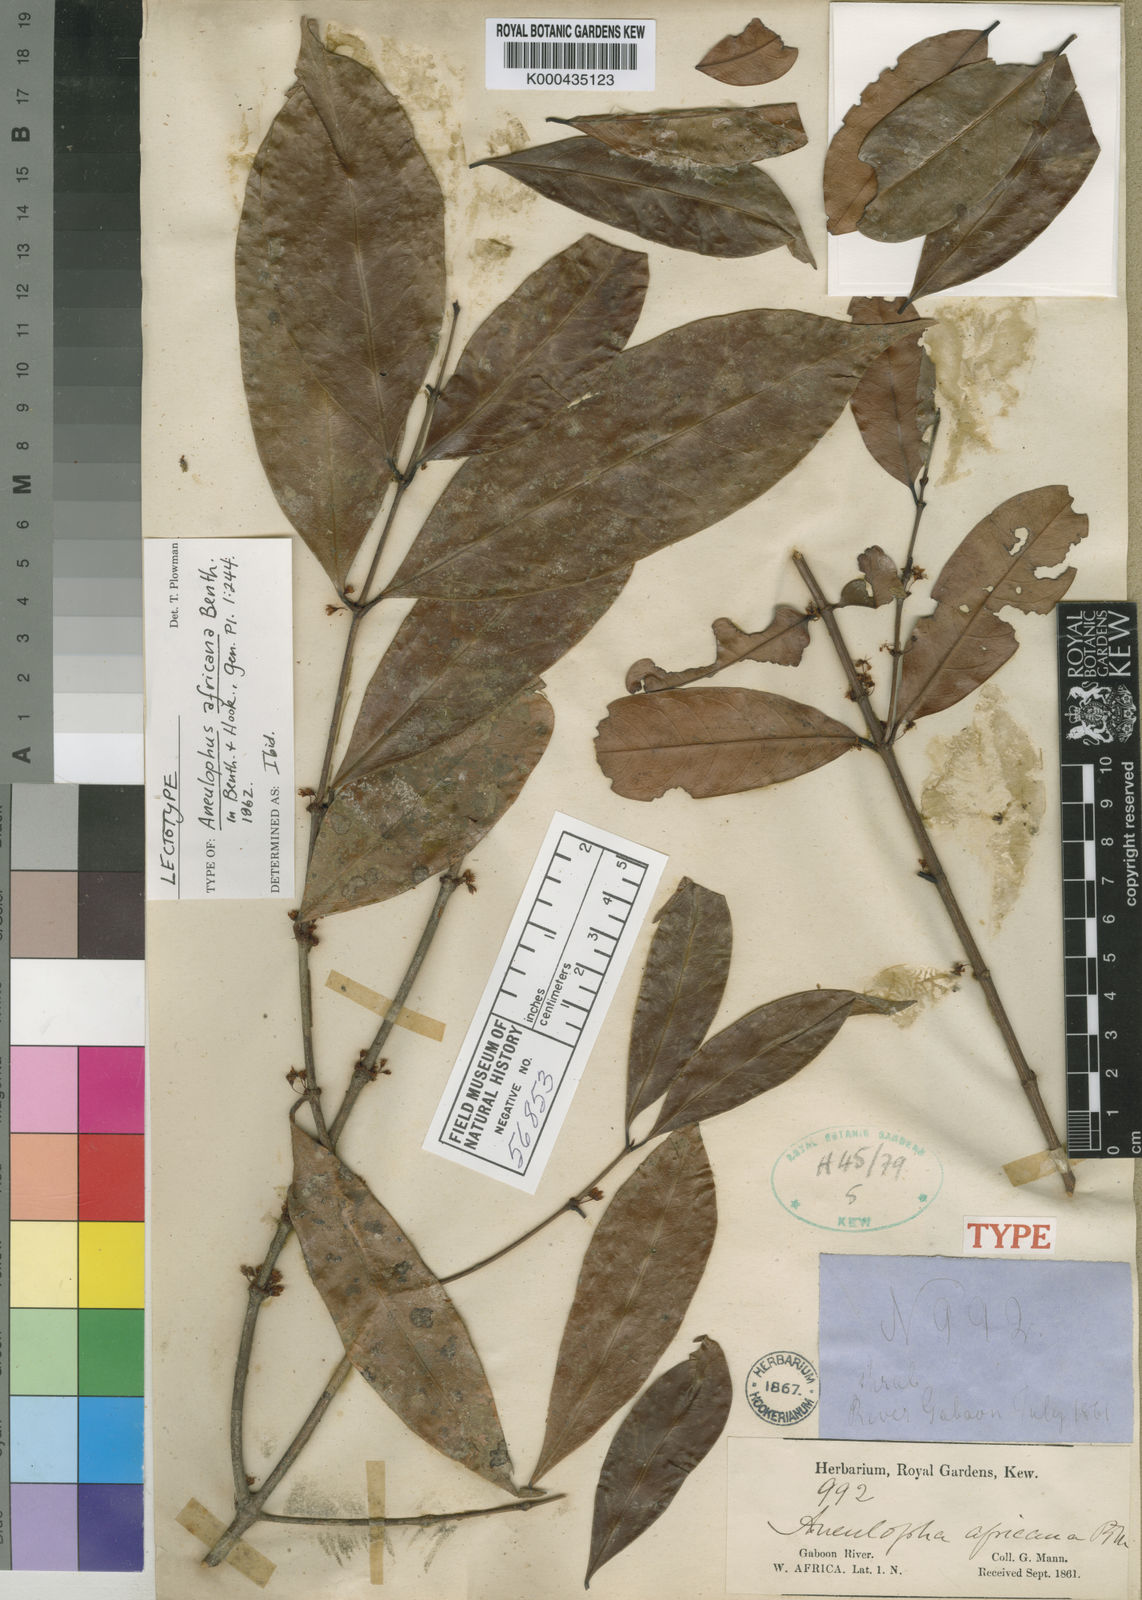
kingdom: Plantae
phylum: Tracheophyta
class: Magnoliopsida
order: Malpighiales
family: Erythroxylaceae
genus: Aneulophus
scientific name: Aneulophus africanus
